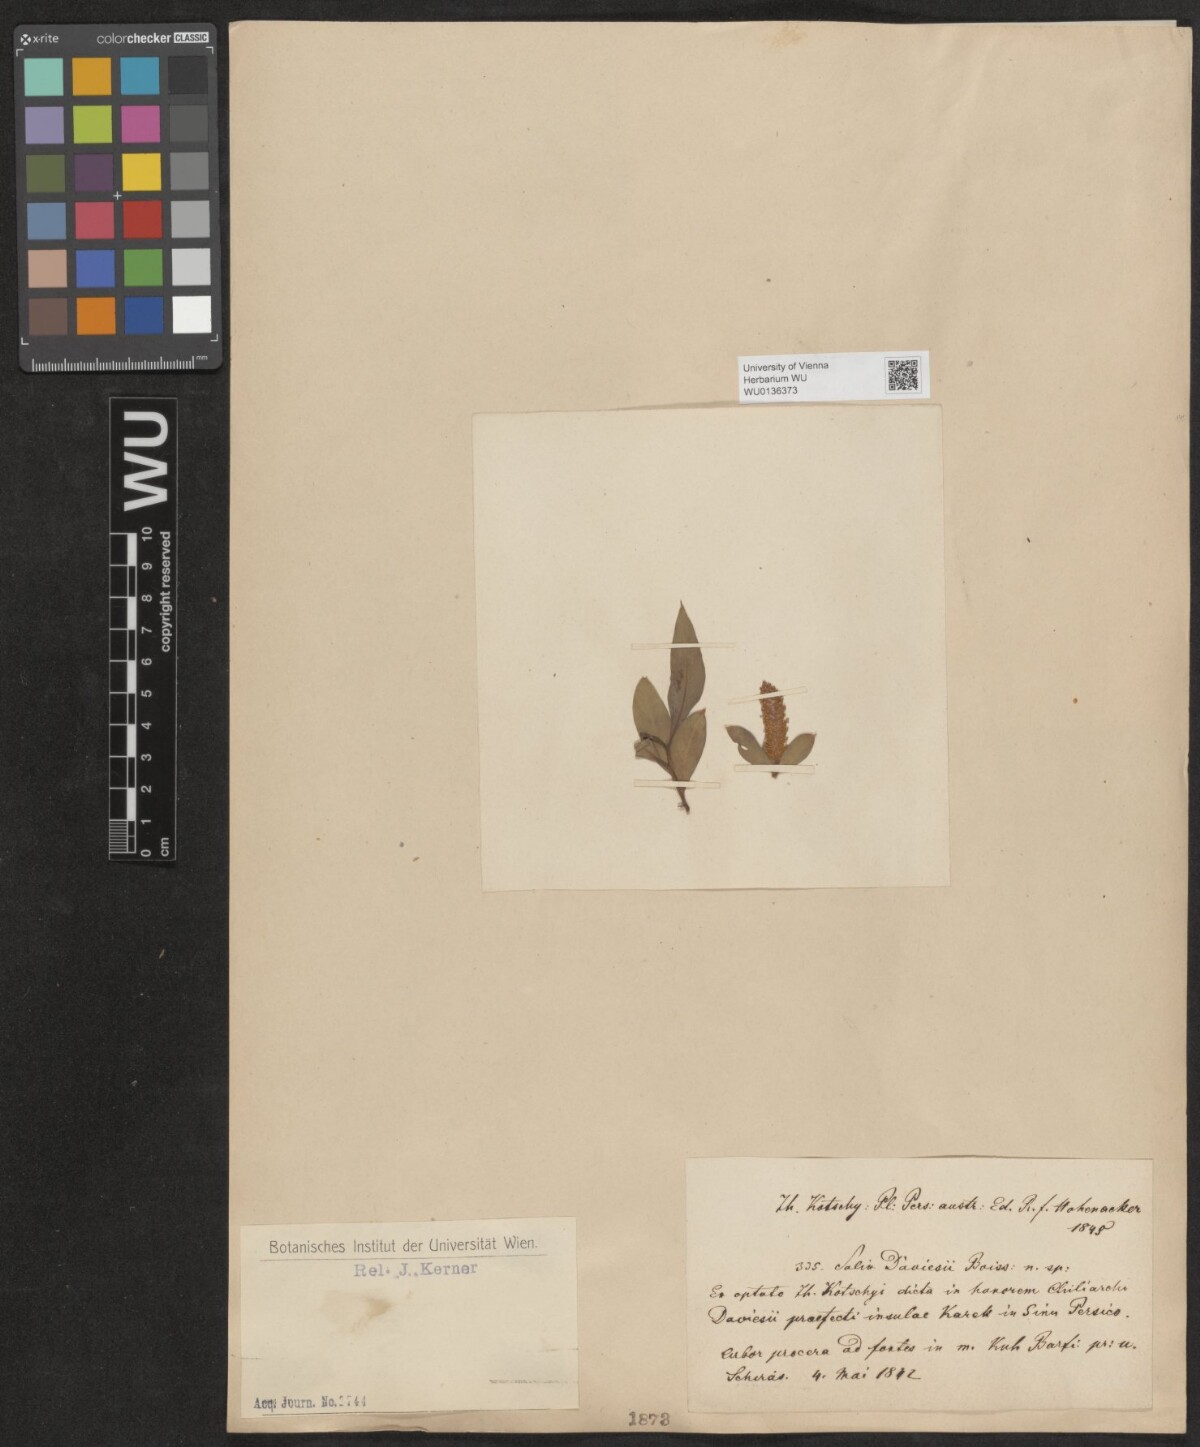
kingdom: Plantae
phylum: Tracheophyta
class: Magnoliopsida
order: Malpighiales
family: Salicaceae
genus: Salix
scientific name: Salix acmophylla
